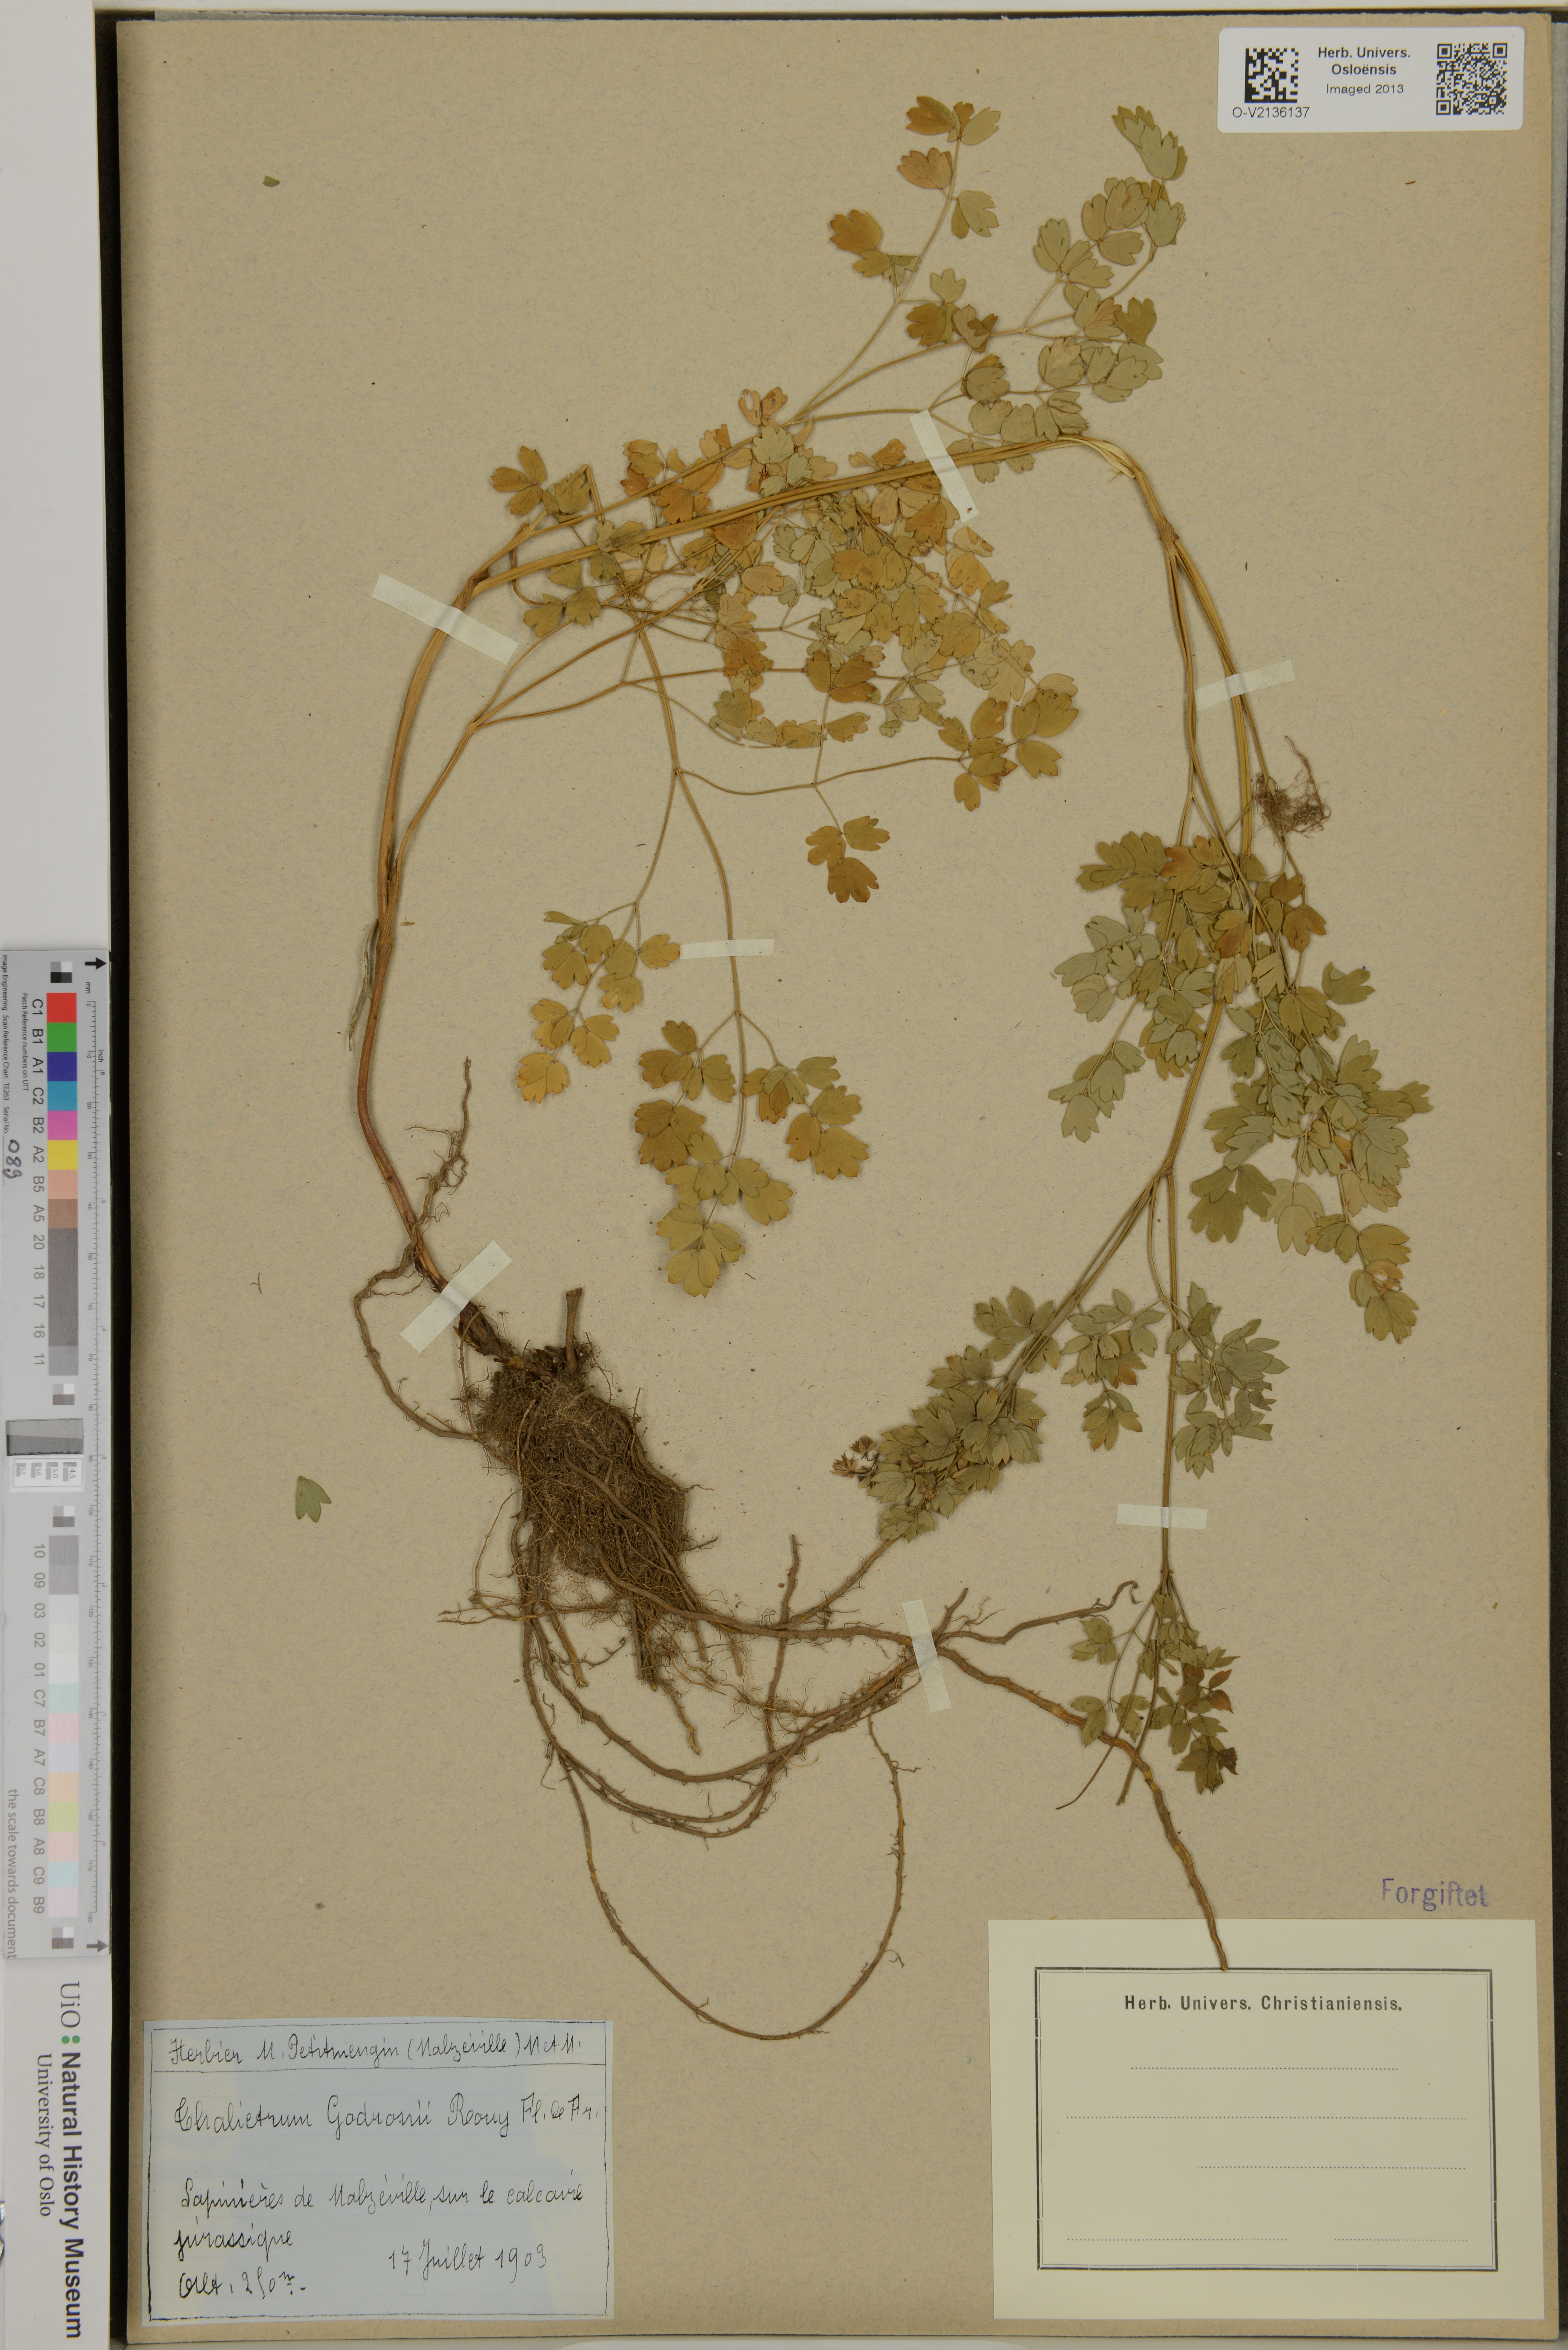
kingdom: Plantae
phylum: Tracheophyta
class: Magnoliopsida
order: Ranunculales
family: Ranunculaceae
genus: Thalictrum
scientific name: Thalictrum minus
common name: Lesser meadow-rue
